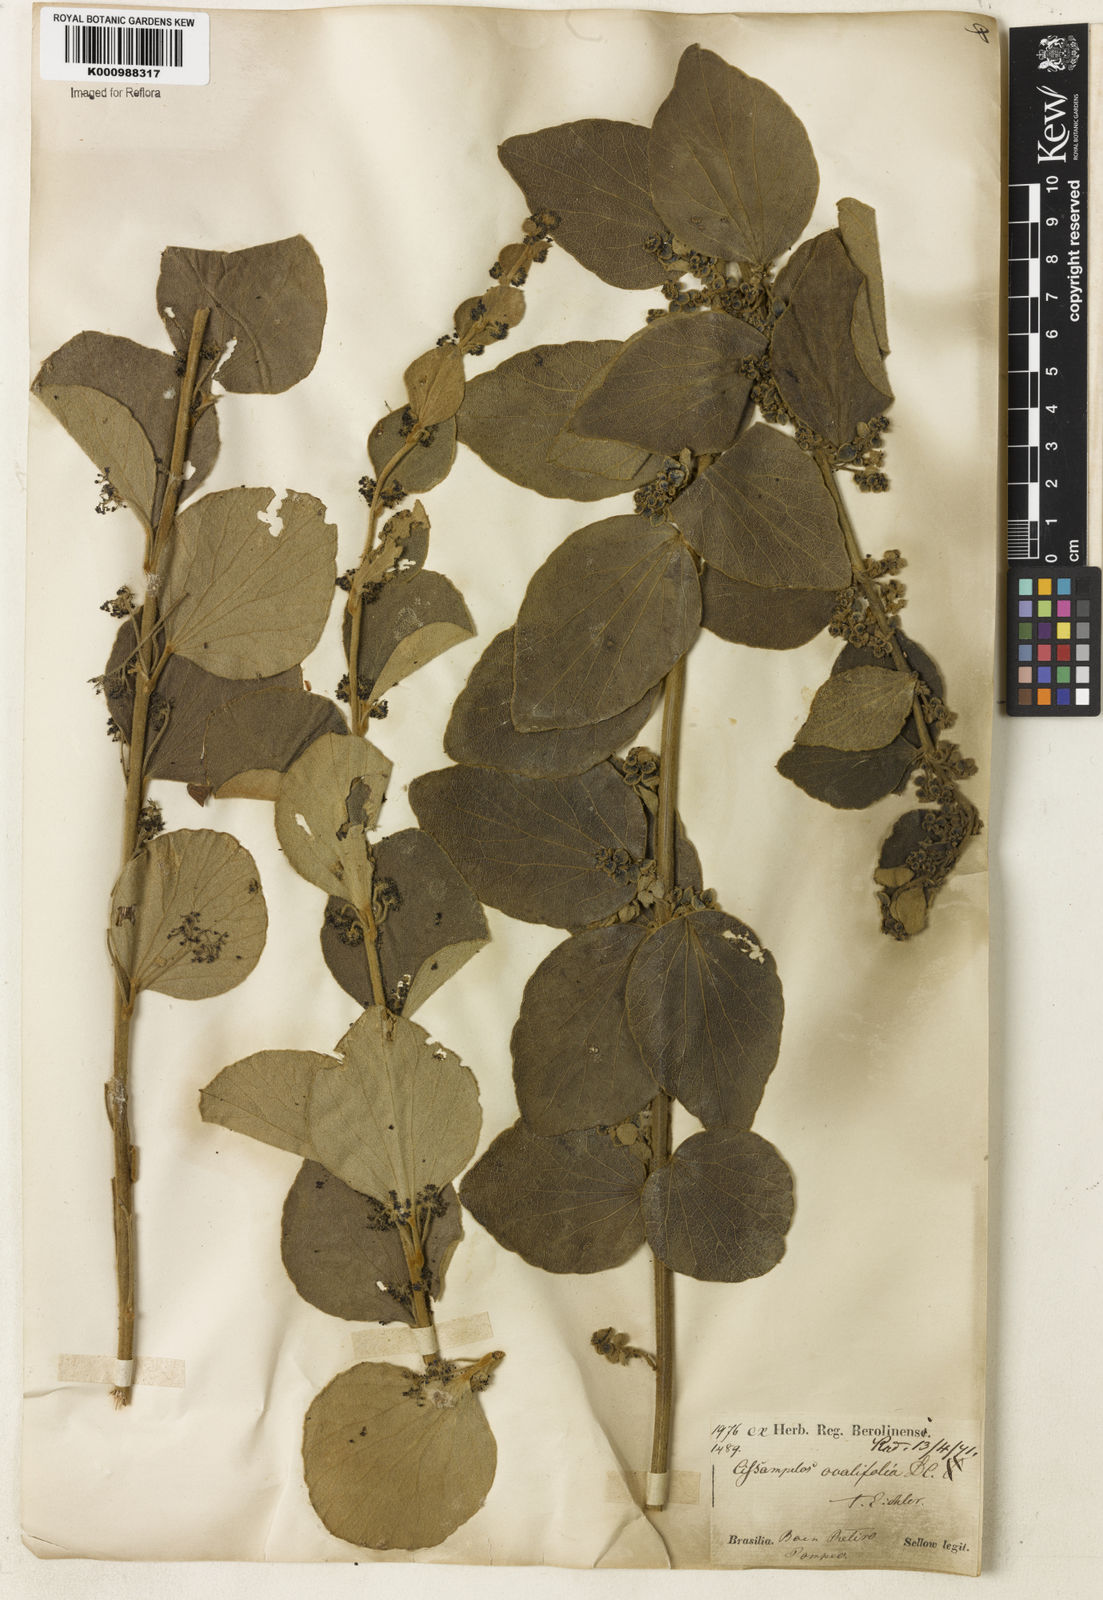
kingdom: Plantae
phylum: Tracheophyta
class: Magnoliopsida
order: Ranunculales
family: Menispermaceae
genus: Cissampelos
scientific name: Cissampelos ovalifolia
